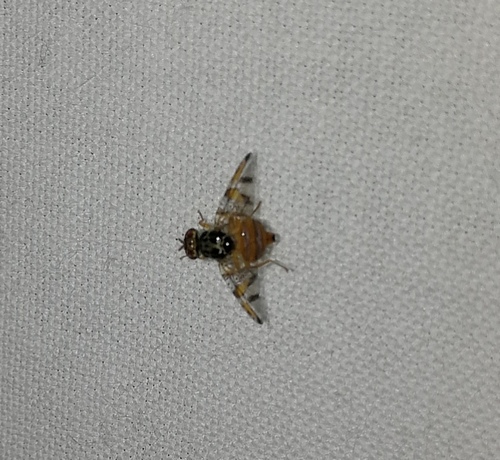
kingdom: Animalia
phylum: Arthropoda
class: Insecta
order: Diptera
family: Tephritidae
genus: Ceratitis
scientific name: Ceratitis capitata
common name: Mediterranean fruit fly
